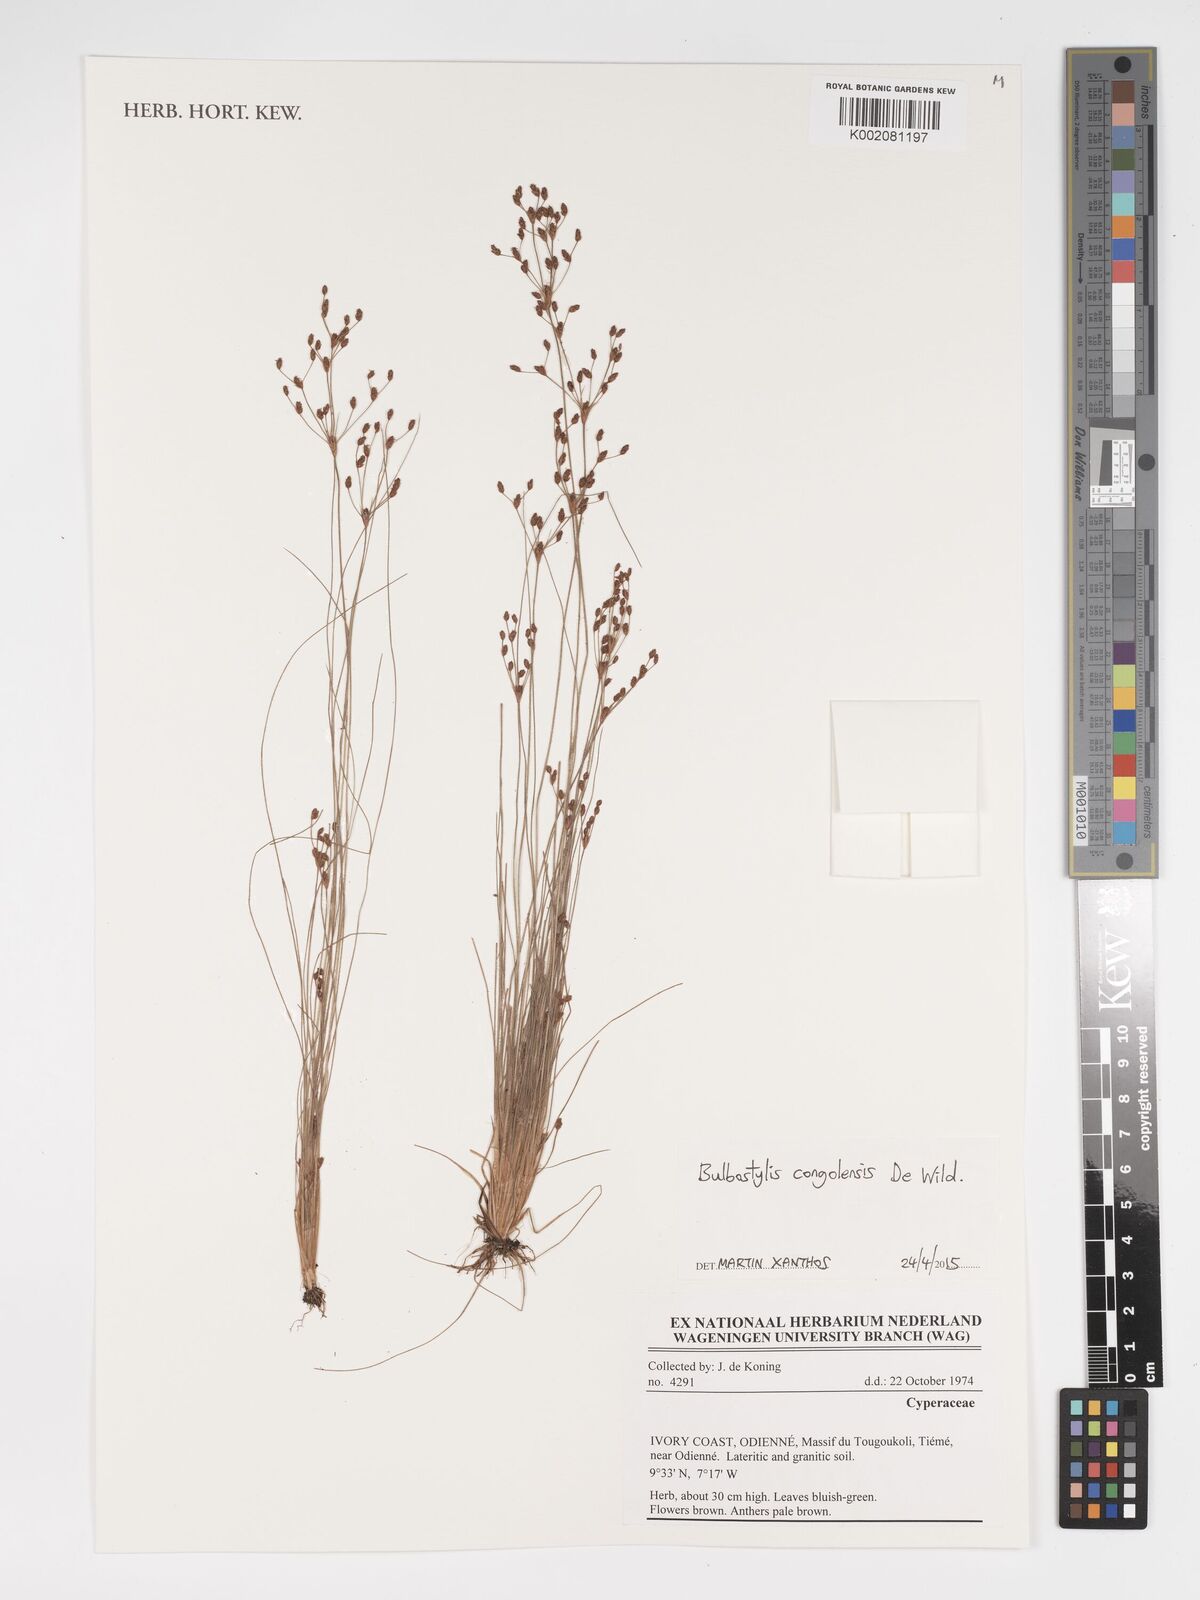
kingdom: Plantae
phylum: Tracheophyta
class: Liliopsida
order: Poales
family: Cyperaceae
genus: Bulbostylis
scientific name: Bulbostylis congolensis
